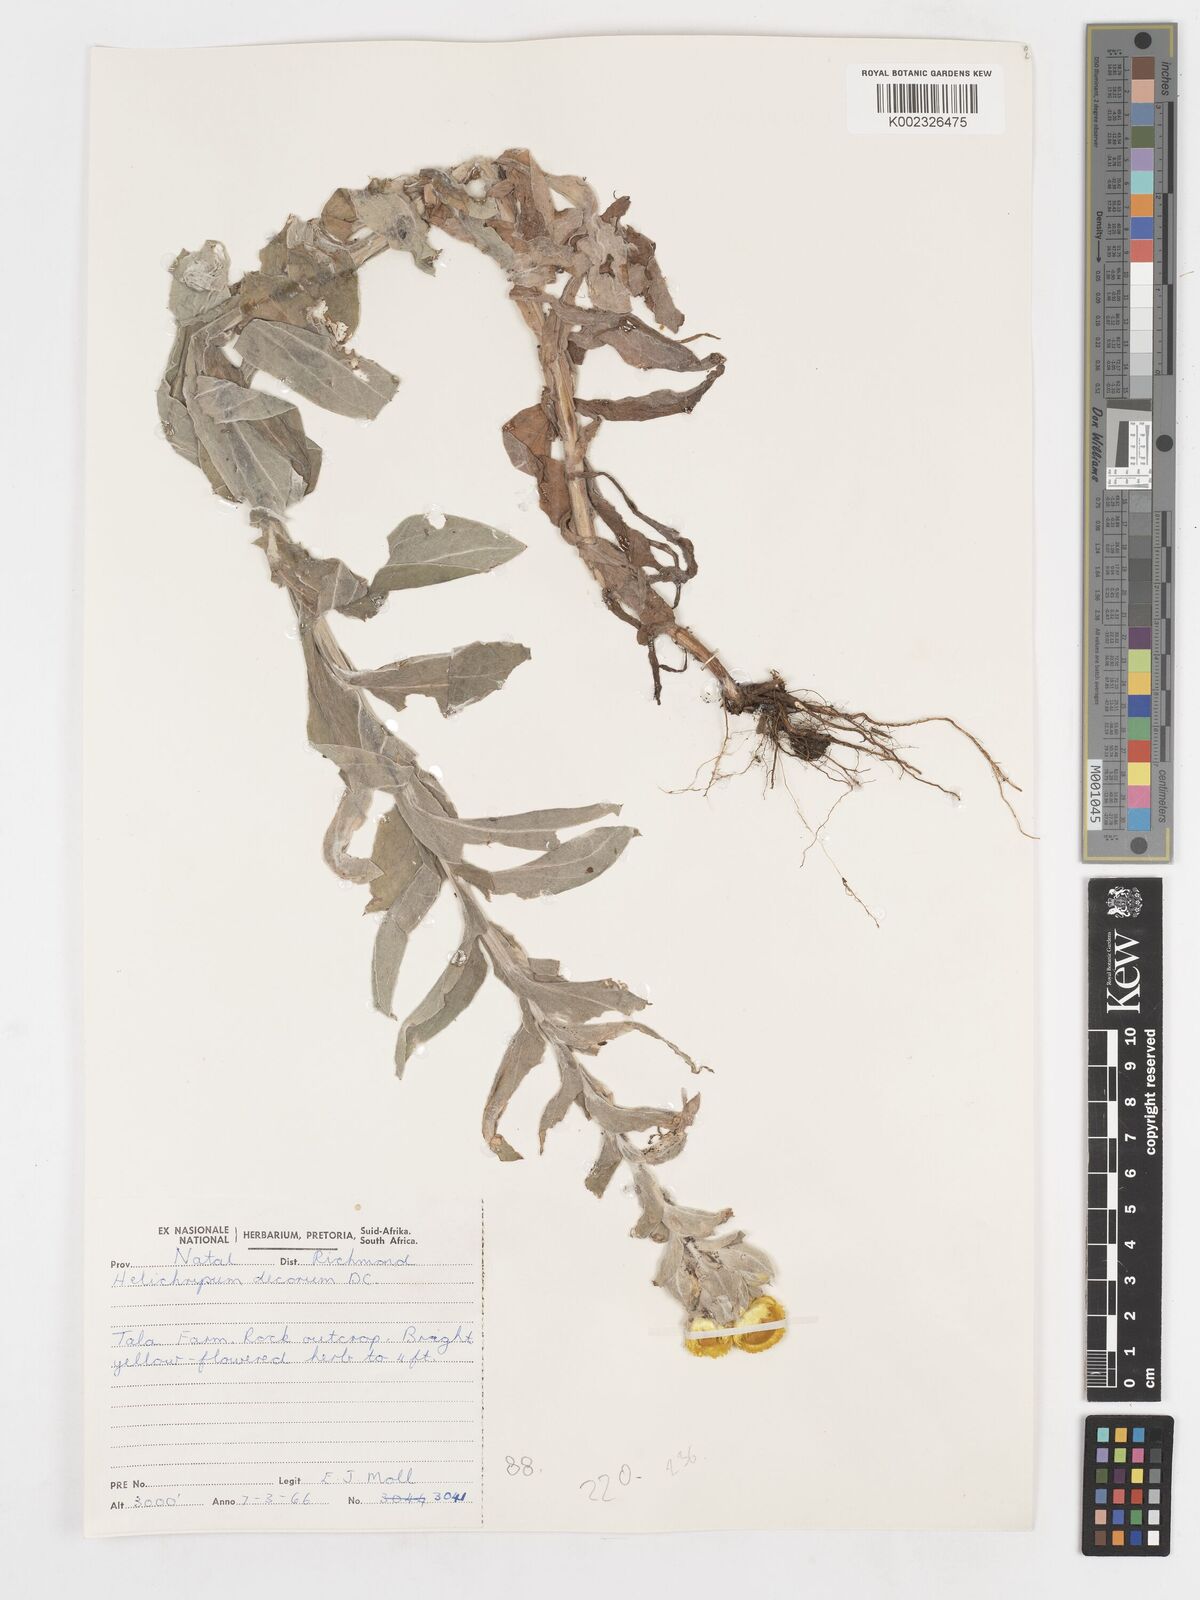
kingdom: Plantae
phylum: Tracheophyta
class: Magnoliopsida
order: Asterales
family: Asteraceae
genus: Helichrysum
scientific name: Helichrysum decorum
